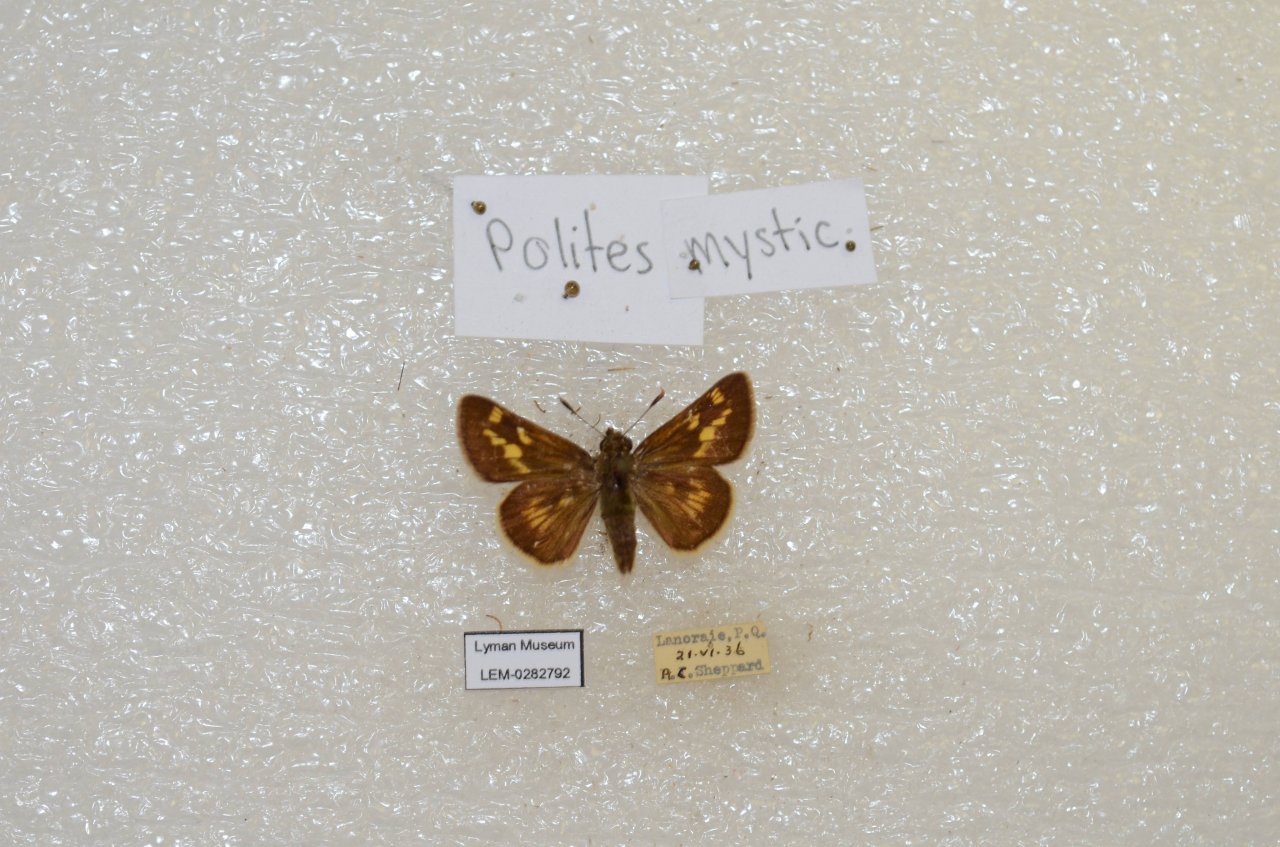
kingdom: Animalia
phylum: Arthropoda
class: Insecta
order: Lepidoptera
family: Hesperiidae
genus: Polites
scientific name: Polites
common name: Long Dash Skipper
